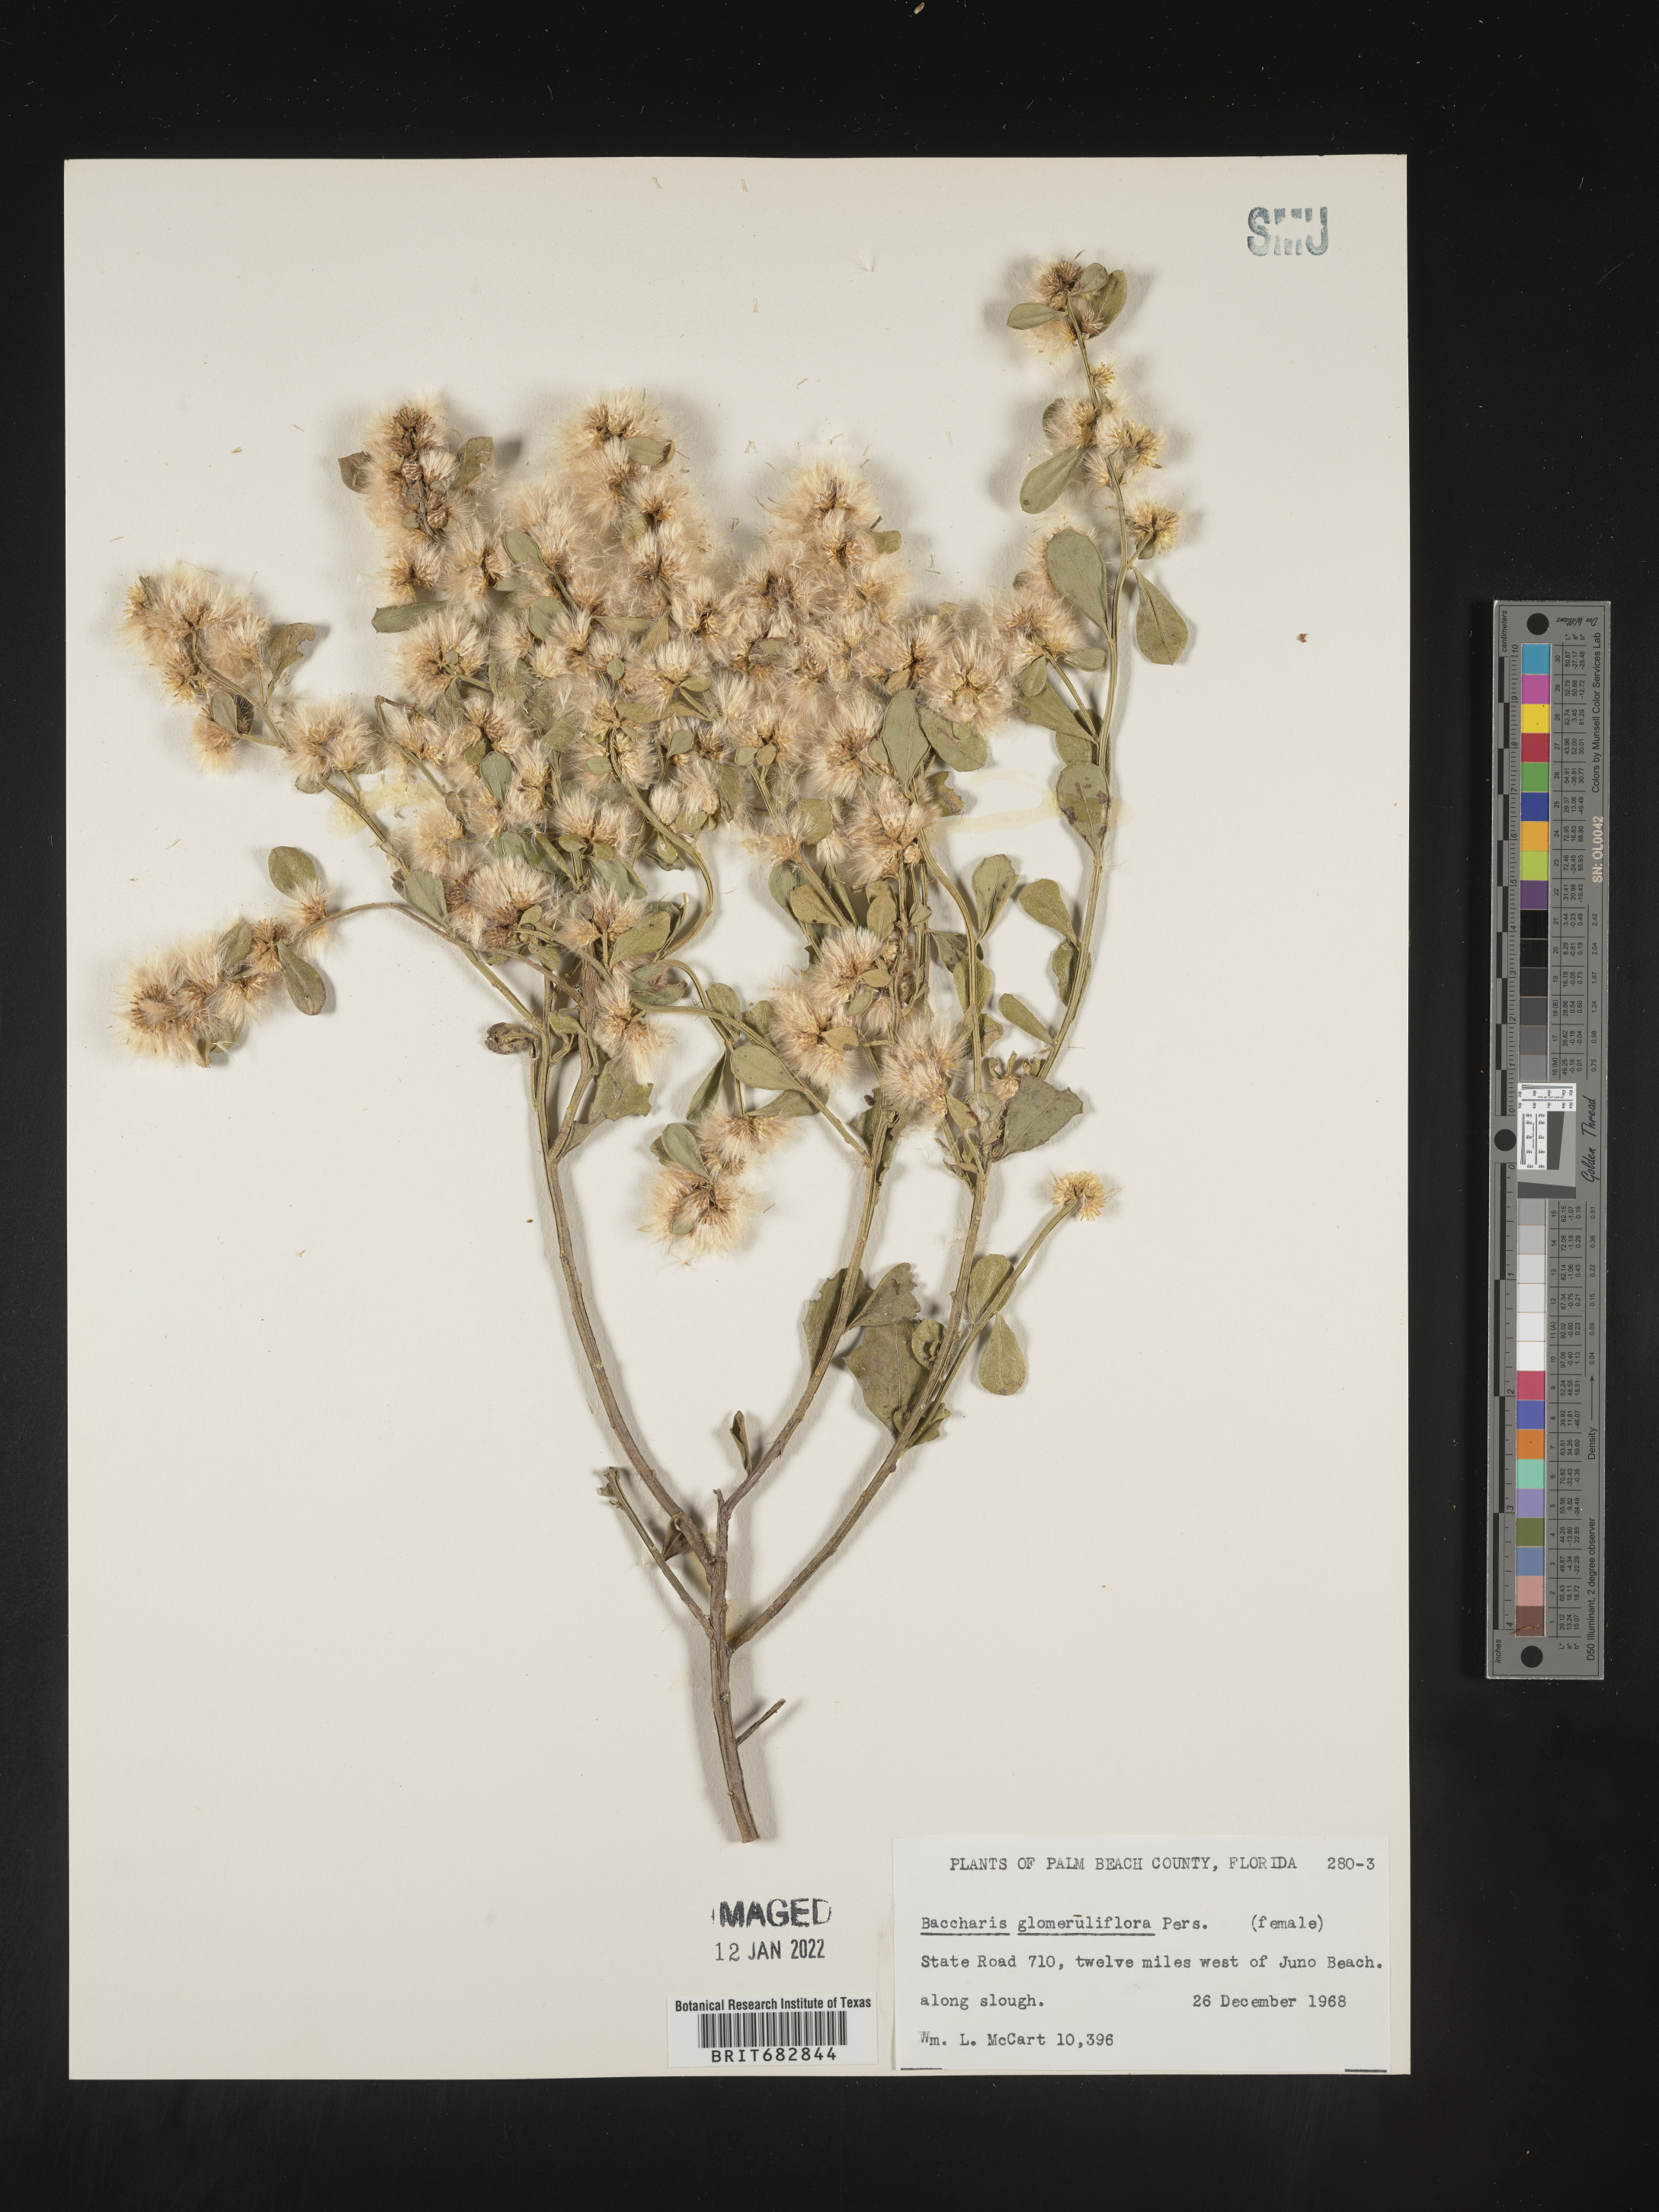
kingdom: Plantae
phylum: Tracheophyta
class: Magnoliopsida
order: Asterales
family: Asteraceae
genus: Baccharis
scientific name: Baccharis glomeruliflora
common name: Silverling groundsel bush
